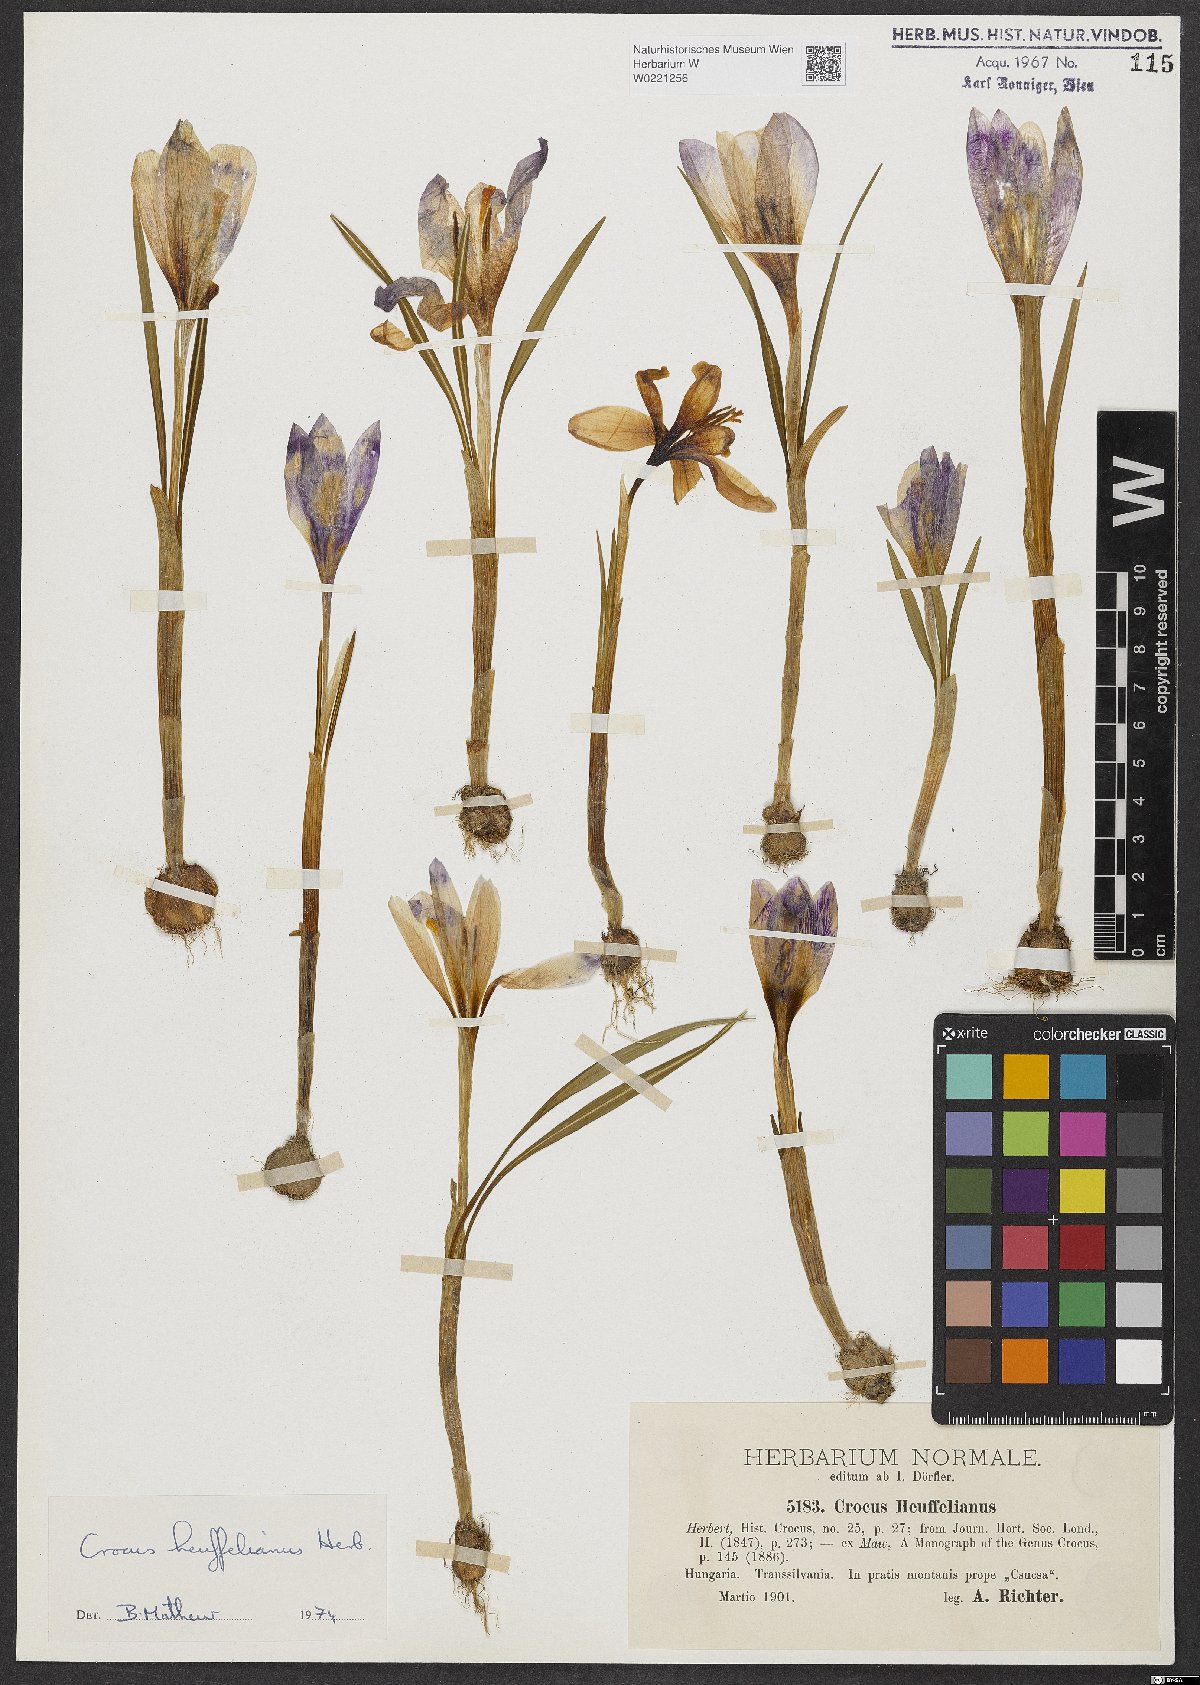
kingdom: Plantae
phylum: Tracheophyta
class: Liliopsida
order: Asparagales
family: Iridaceae
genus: Crocus
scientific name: Crocus heuffelianus
